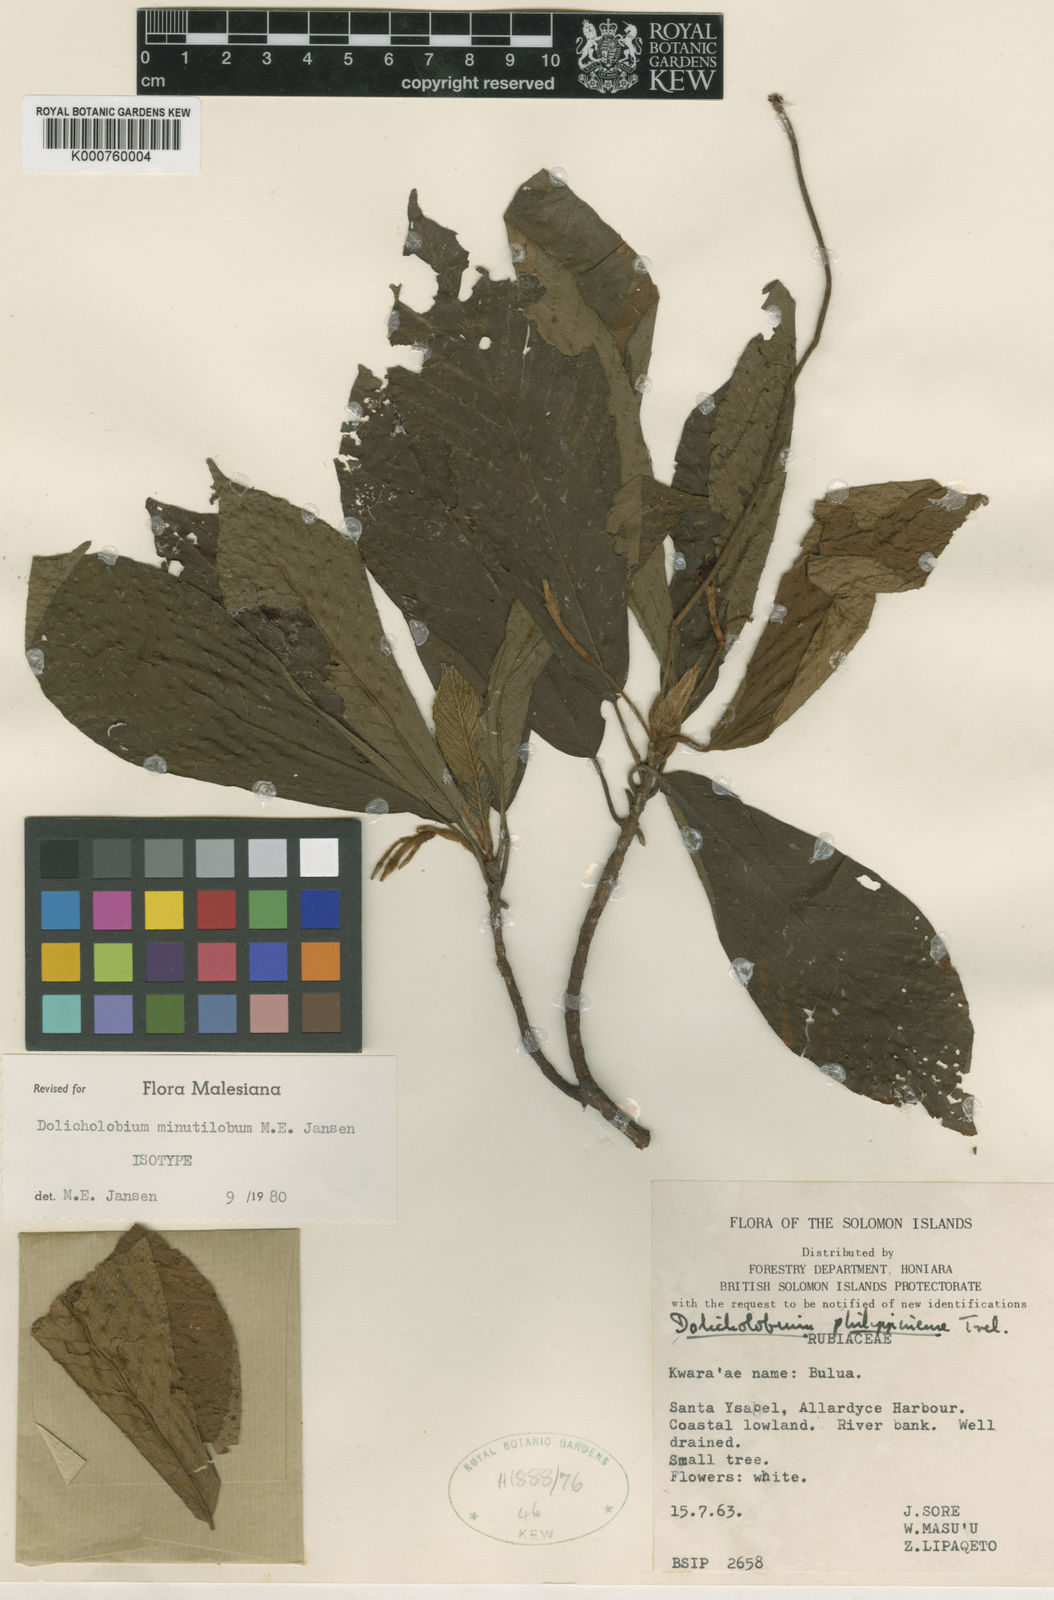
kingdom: Plantae
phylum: Tracheophyta
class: Magnoliopsida
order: Gentianales
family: Rubiaceae
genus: Dolicholobium
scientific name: Dolicholobium minutilobum
